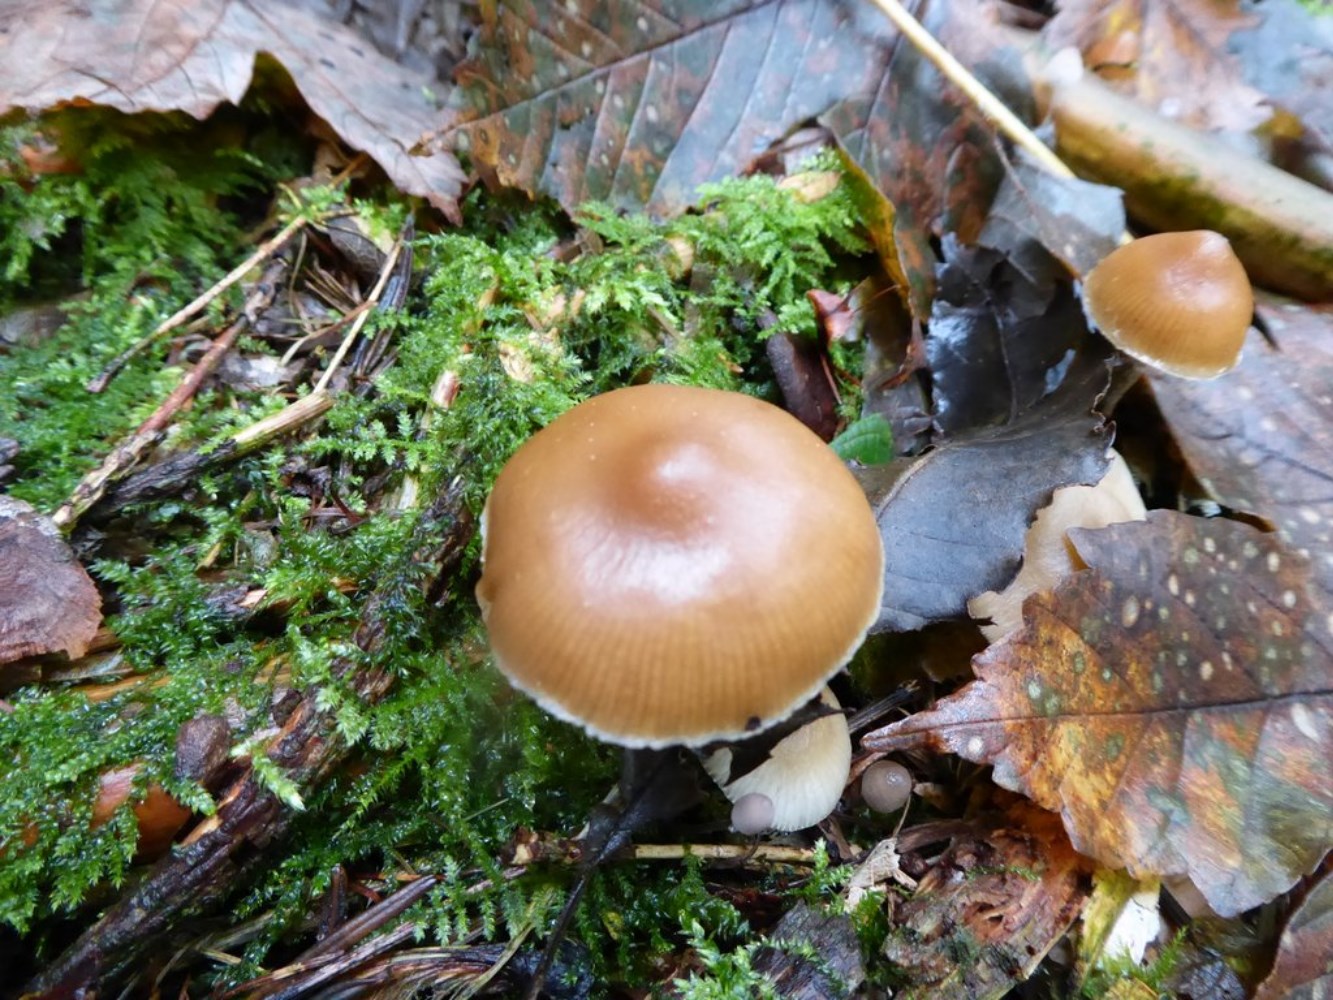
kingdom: Fungi
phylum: Basidiomycota
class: Agaricomycetes
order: Agaricales
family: Hymenogastraceae
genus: Galerina
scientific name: Galerina marginata
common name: randbæltet hjelmhat
